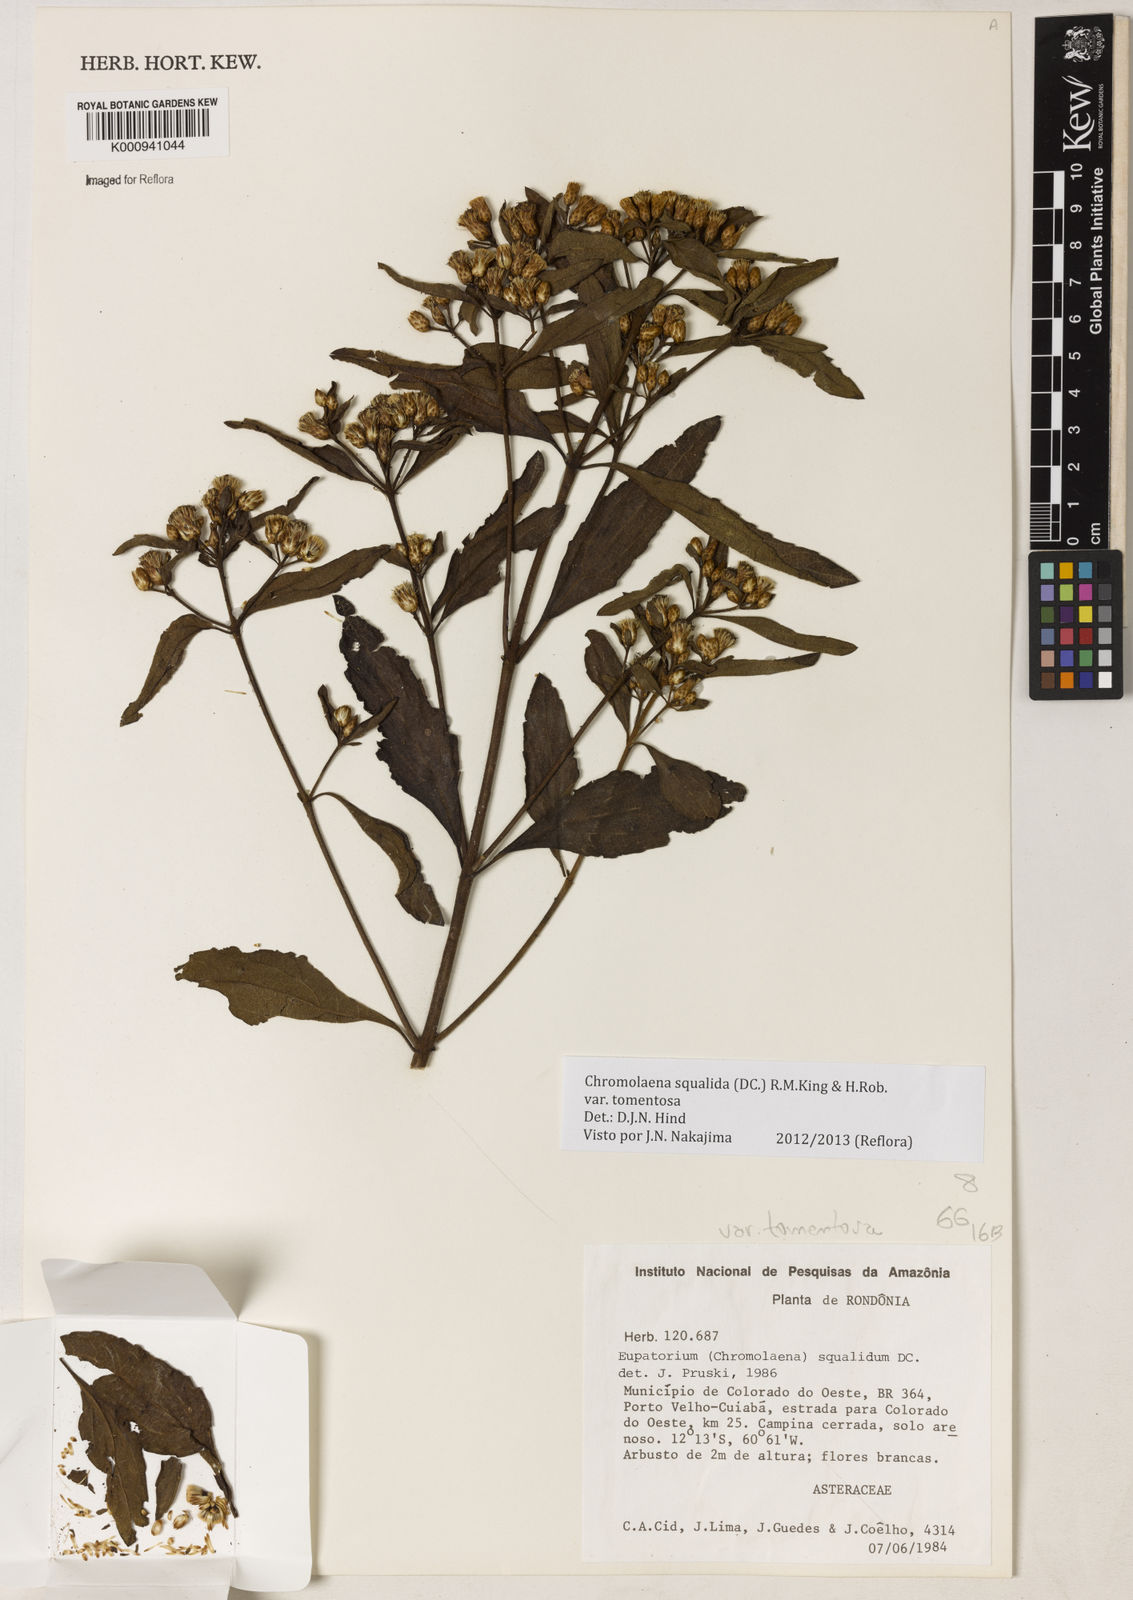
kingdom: Plantae
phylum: Tracheophyta
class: Magnoliopsida
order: Asterales
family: Asteraceae
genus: Chromolaena
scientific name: Chromolaena squalida
